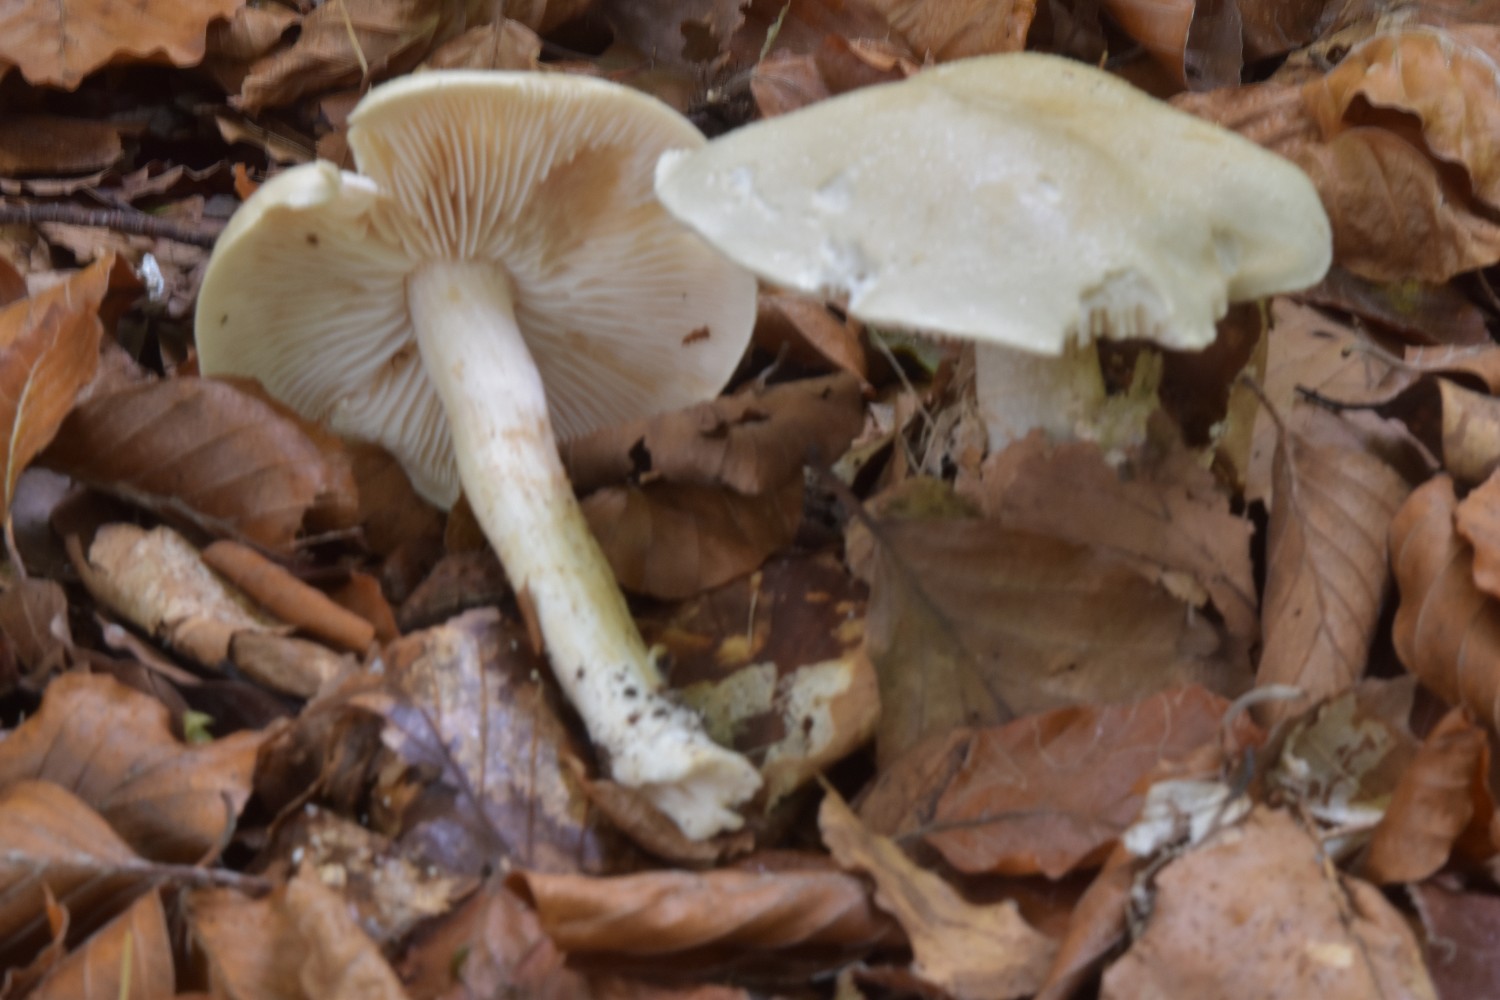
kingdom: Fungi
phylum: Basidiomycota
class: Agaricomycetes
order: Agaricales
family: Tricholomataceae
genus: Tricholoma
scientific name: Tricholoma lascivum
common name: stinkende ridderhat
